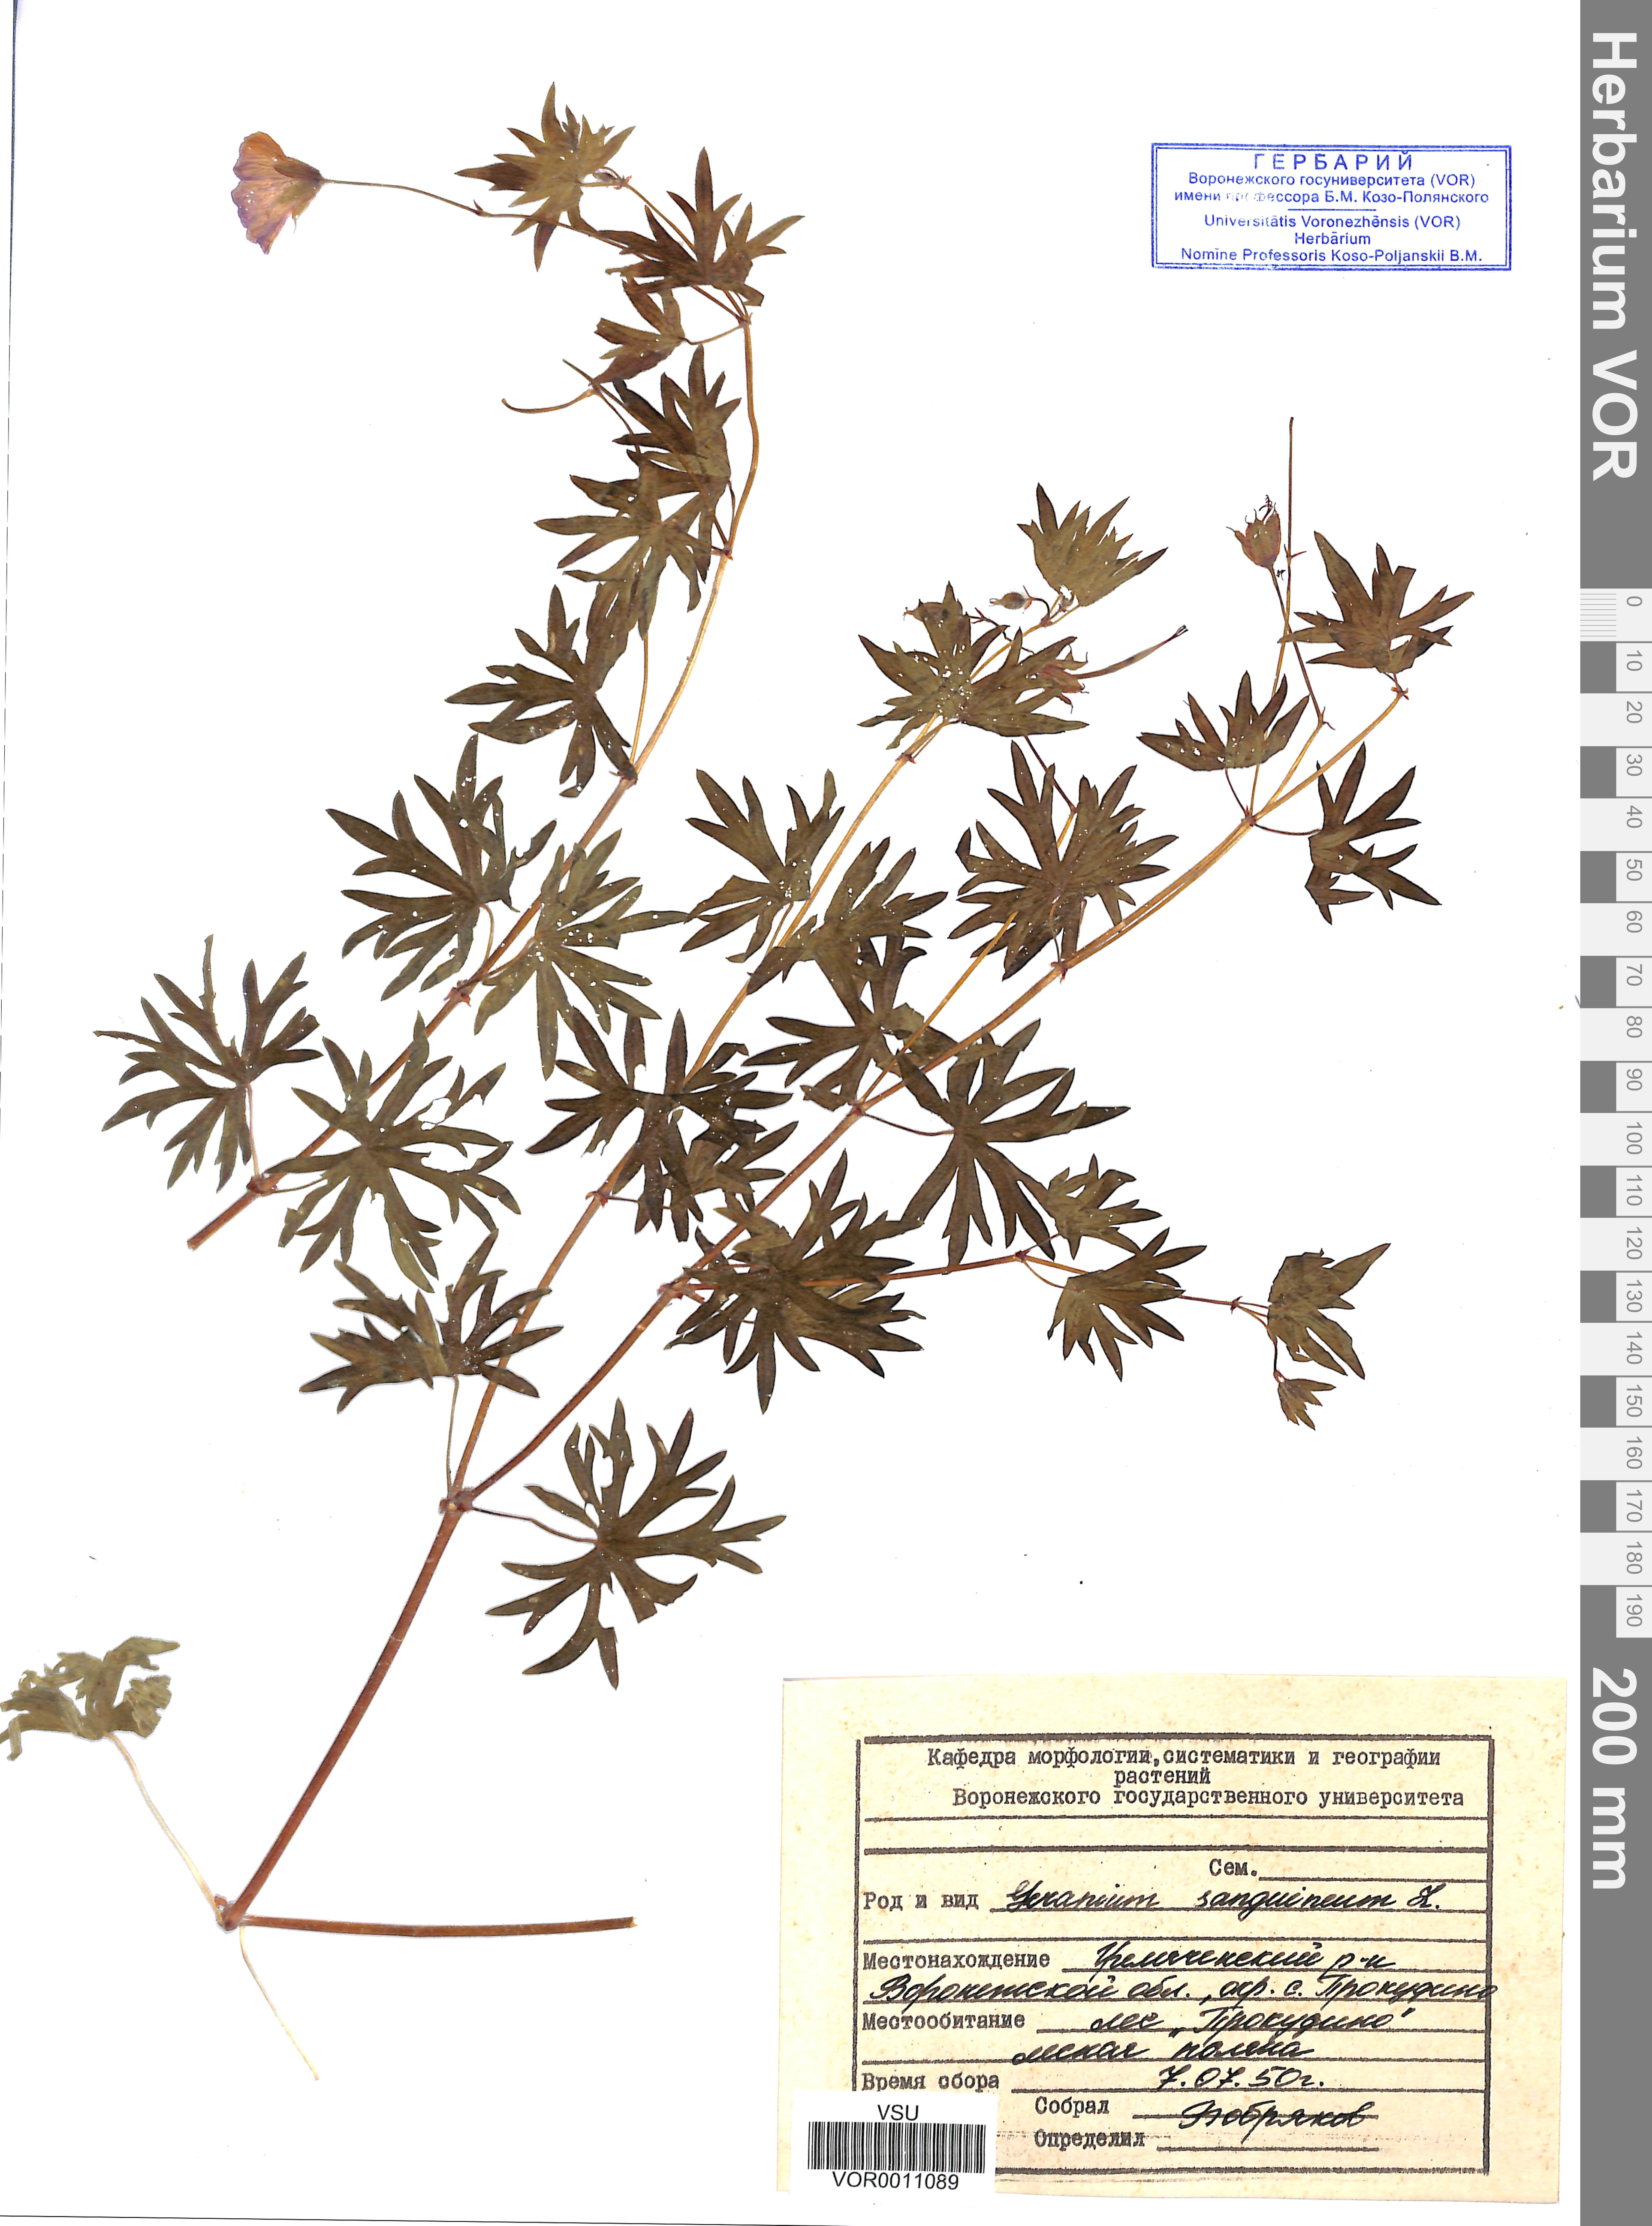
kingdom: Plantae
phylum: Tracheophyta
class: Magnoliopsida
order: Geraniales
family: Geraniaceae
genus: Geranium
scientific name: Geranium sanguineum
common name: Bloody crane's-bill
